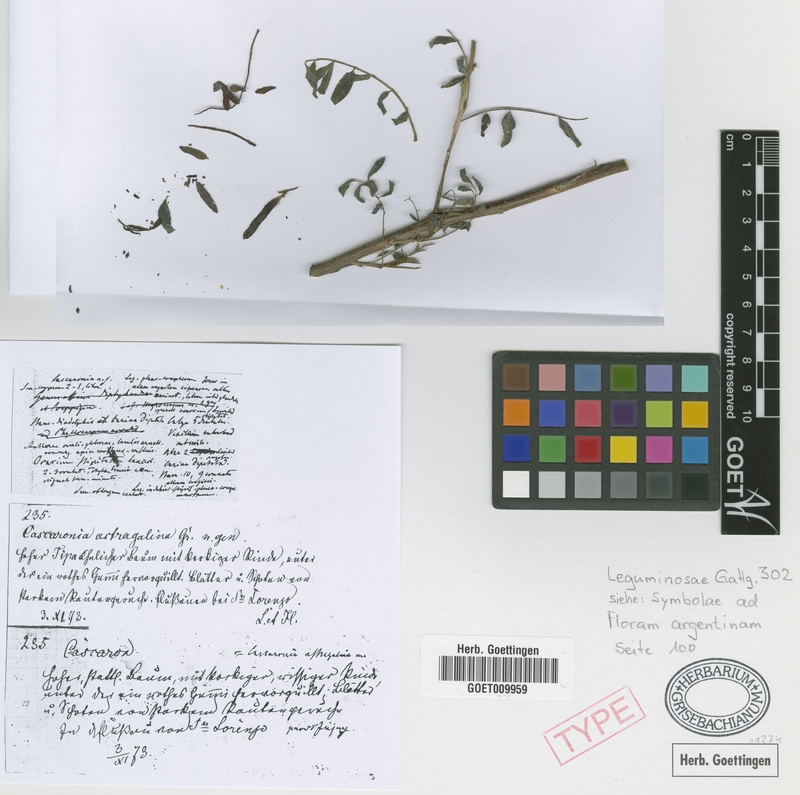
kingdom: Plantae
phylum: Tracheophyta
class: Magnoliopsida
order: Fabales
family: Fabaceae
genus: Cascaronia
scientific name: Cascaronia astragalina
